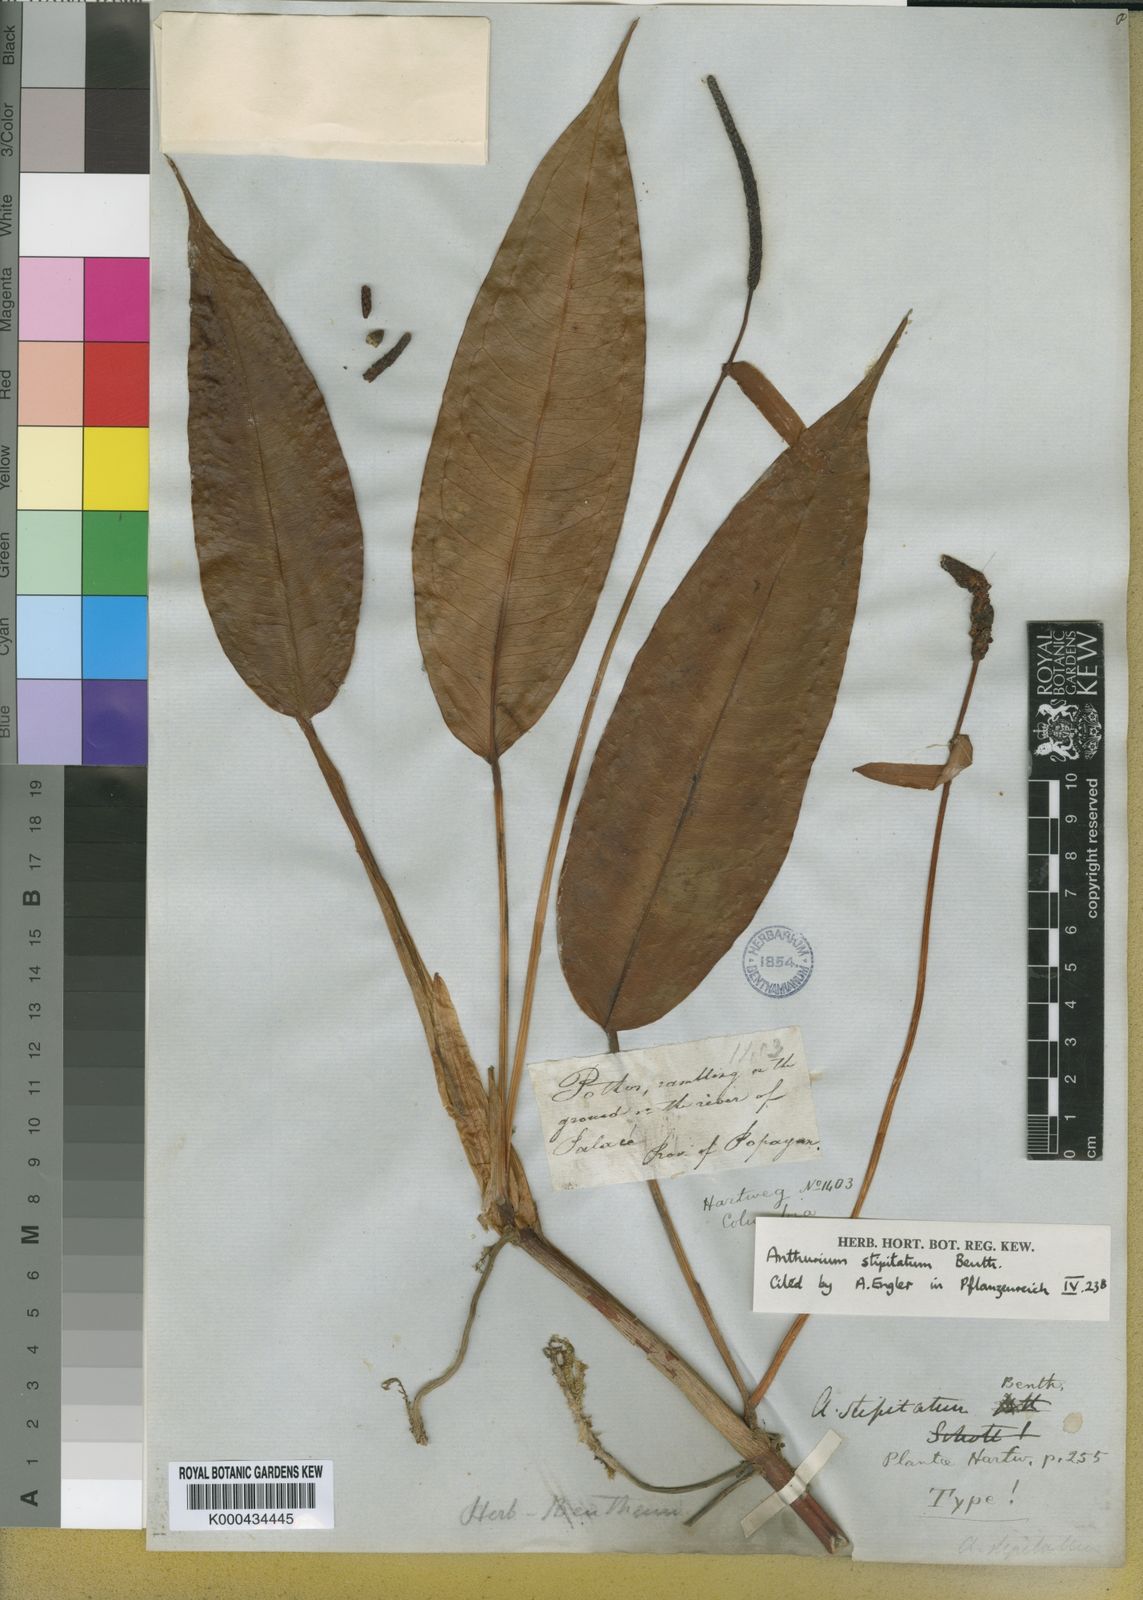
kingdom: Plantae
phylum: Tracheophyta
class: Liliopsida
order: Alismatales
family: Araceae
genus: Anthurium
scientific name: Anthurium stipitatum
